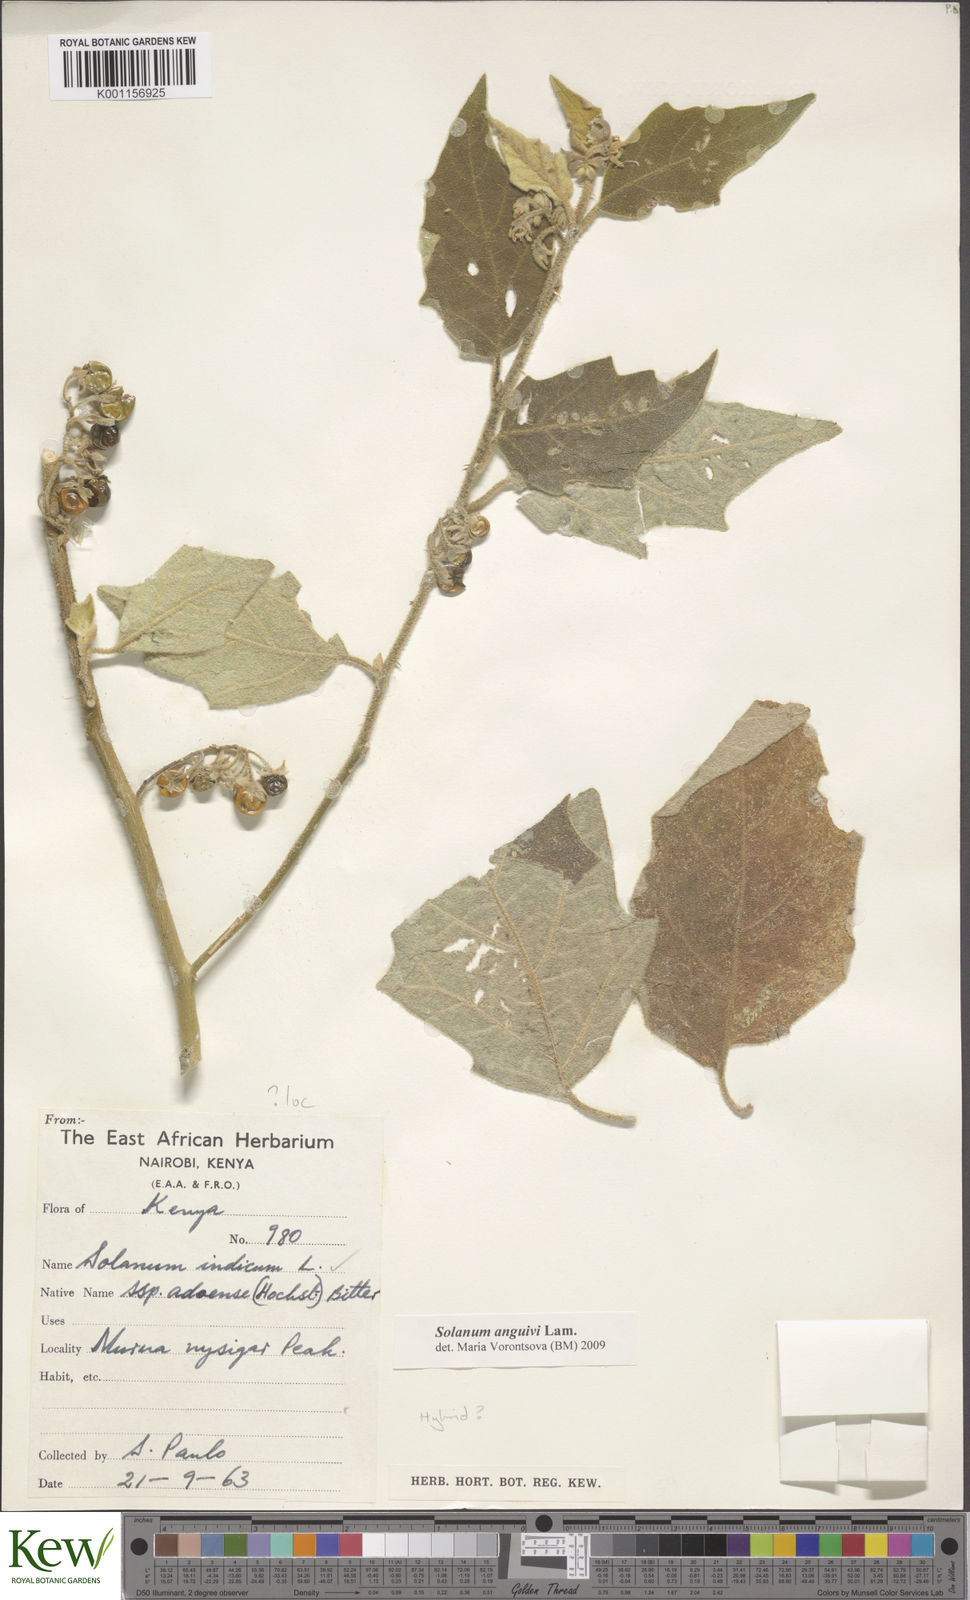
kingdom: Plantae
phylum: Tracheophyta
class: Magnoliopsida
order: Solanales
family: Solanaceae
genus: Solanum
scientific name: Solanum anguivi
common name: Forest bitterberry
